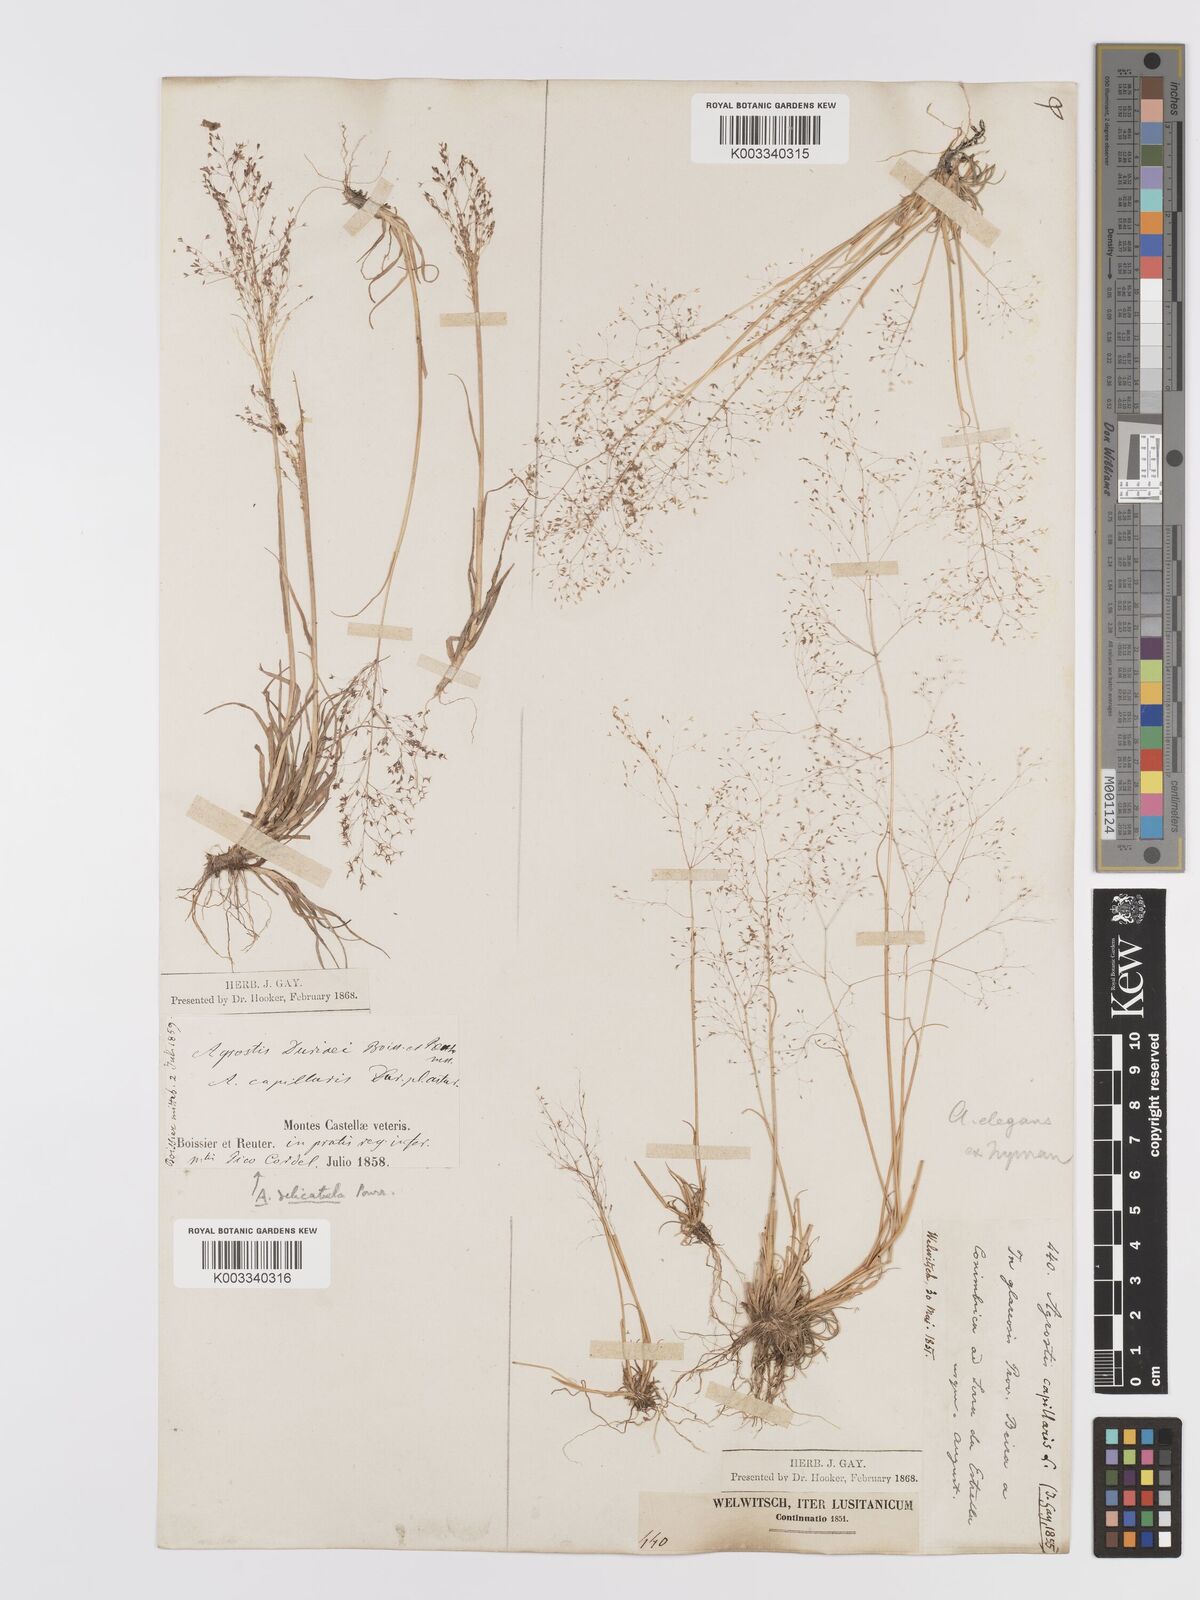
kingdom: Plantae
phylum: Tracheophyta
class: Liliopsida
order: Poales
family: Poaceae
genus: Agrostis
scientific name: Agrostis tenerrima
